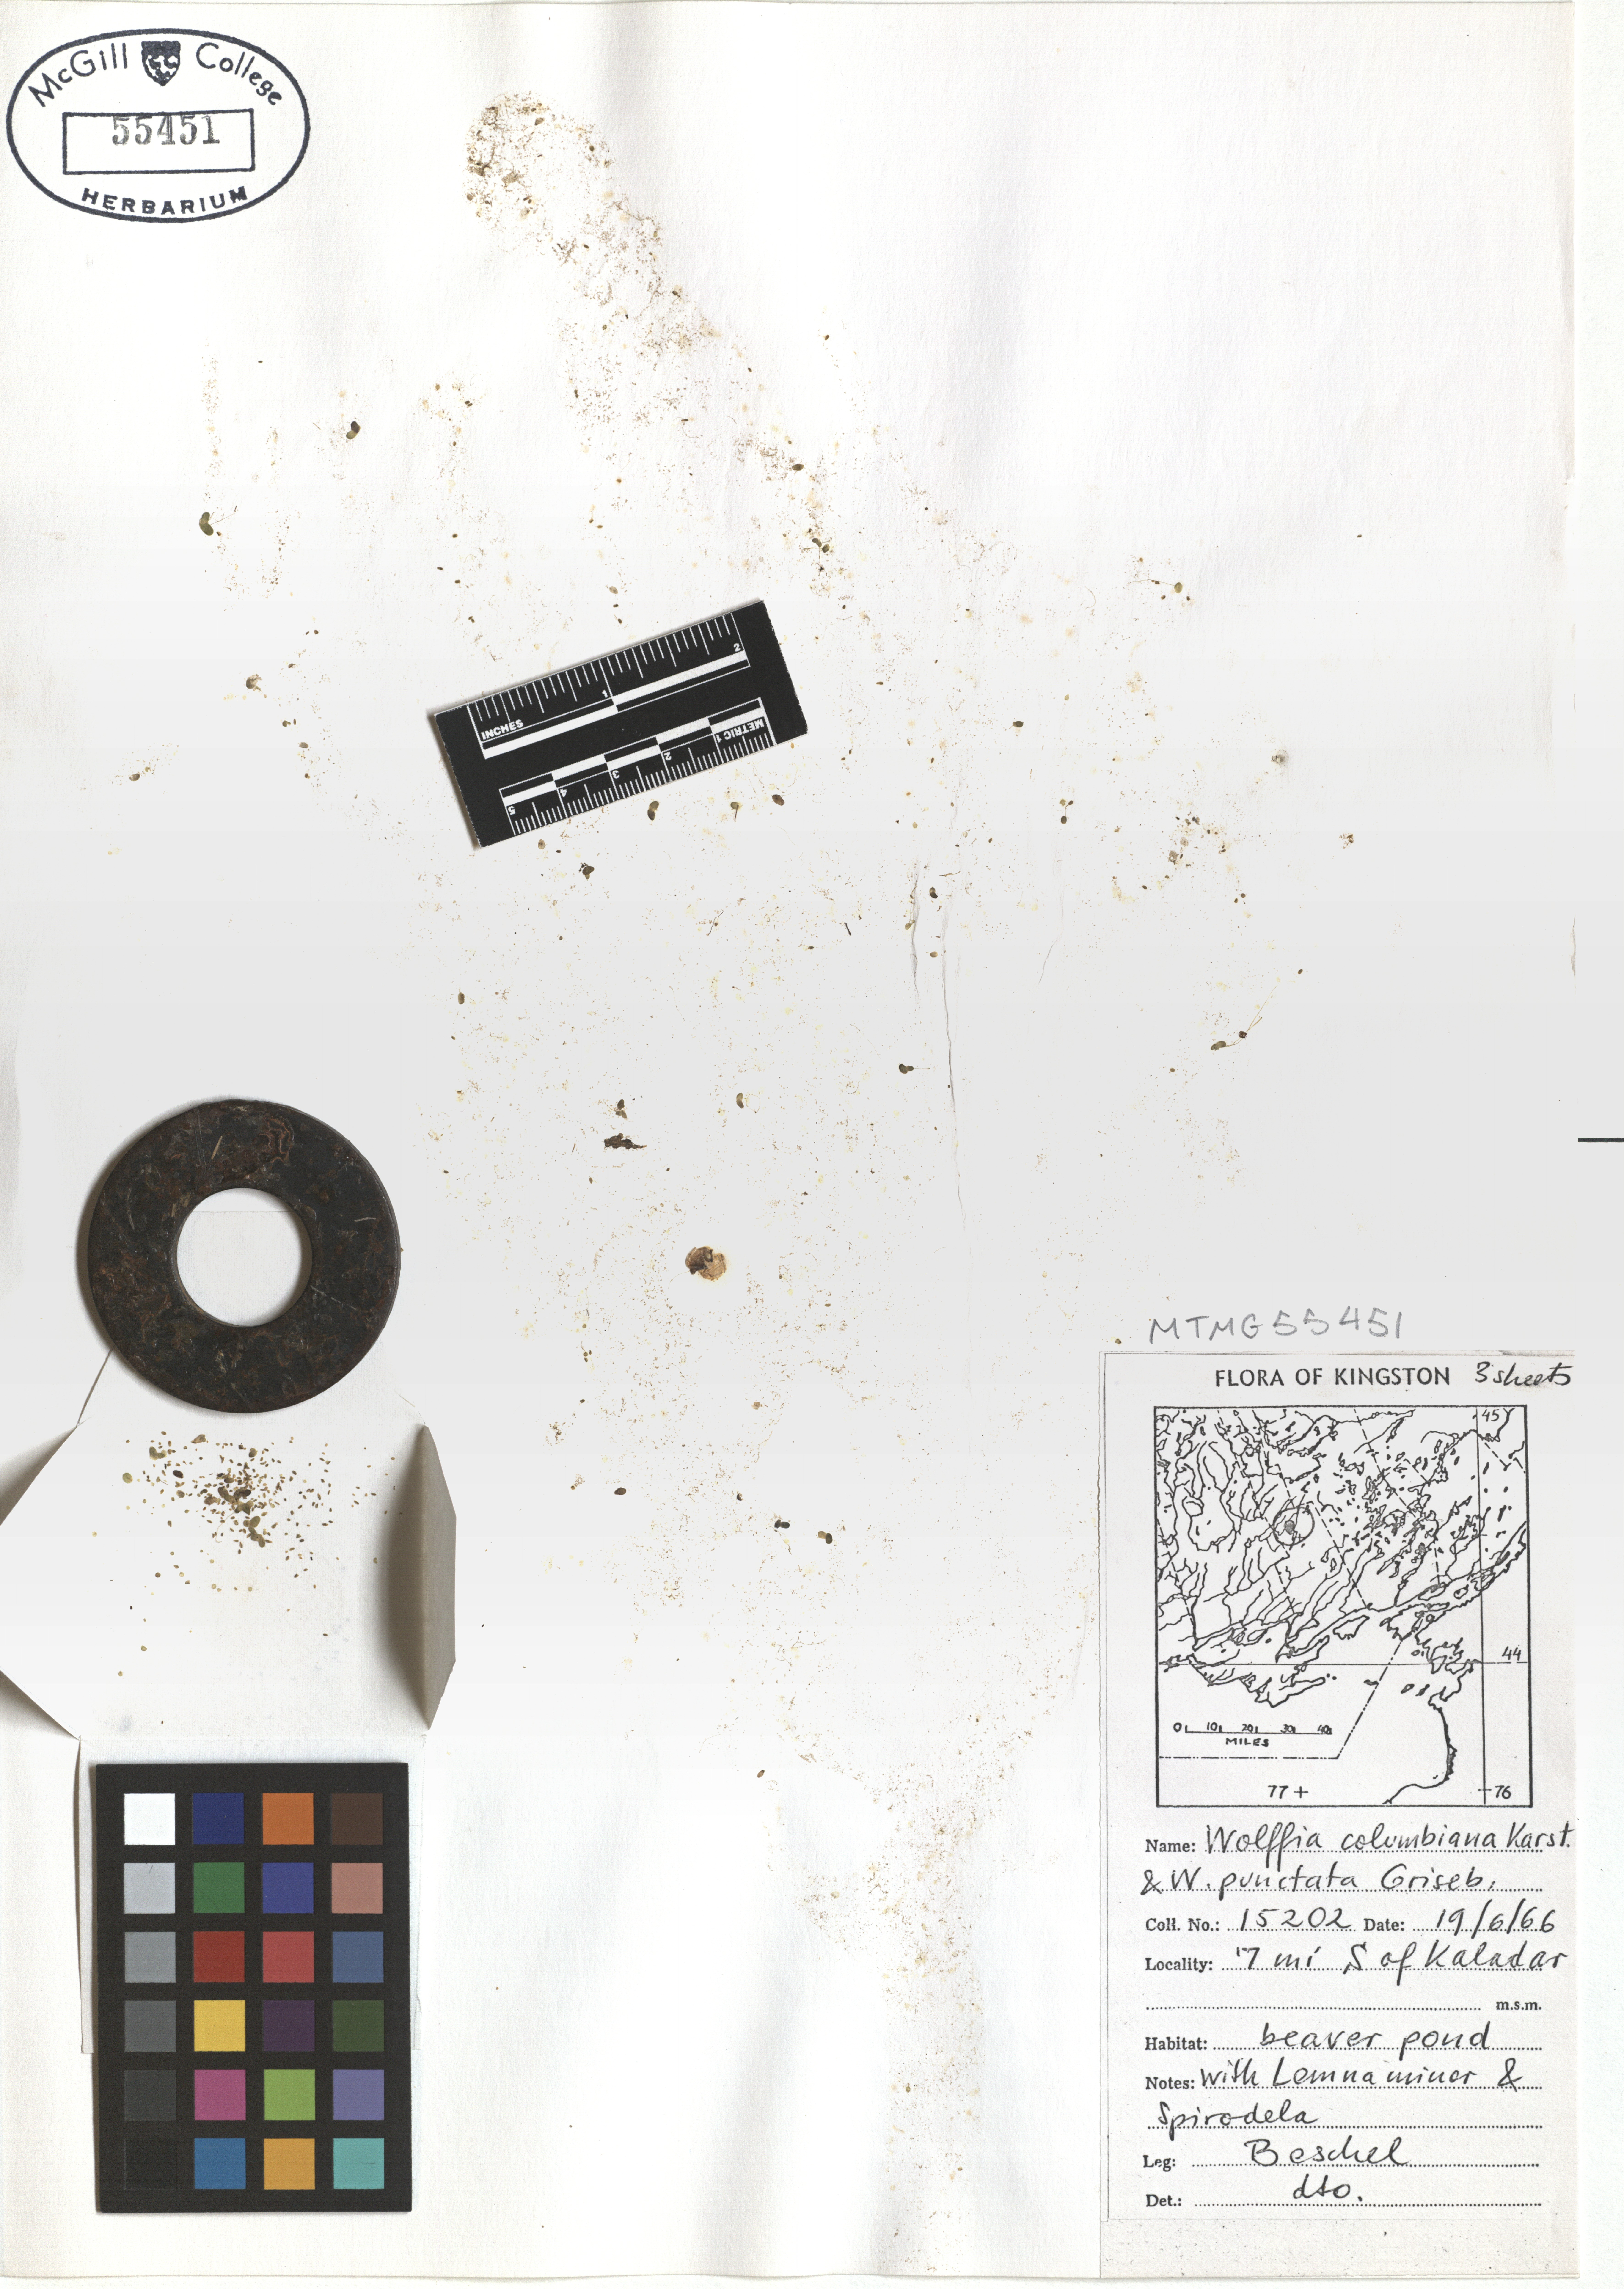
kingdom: Plantae
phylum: Tracheophyta
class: Liliopsida
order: Alismatales
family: Araceae
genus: Wolffia
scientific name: Wolffia columbiana
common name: Columbia watermeal
